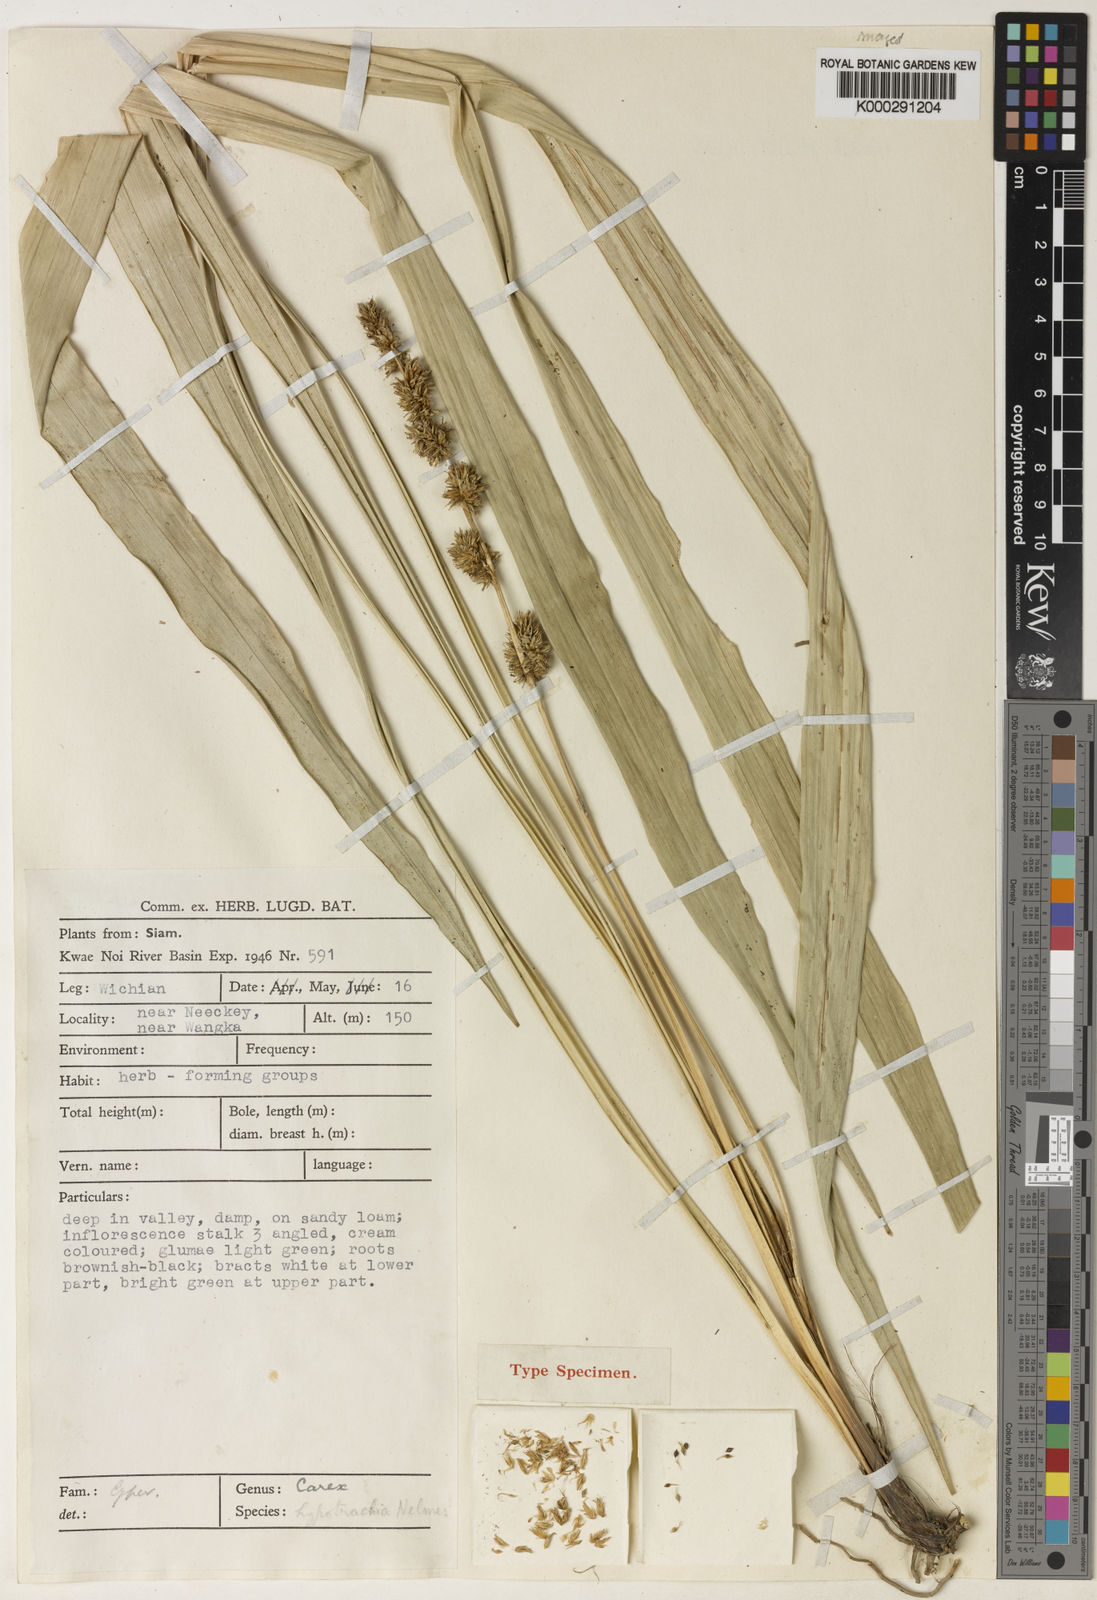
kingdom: Plantae
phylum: Tracheophyta
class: Liliopsida
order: Poales
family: Cyperaceae
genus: Carex
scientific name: Carex meeboldiana
